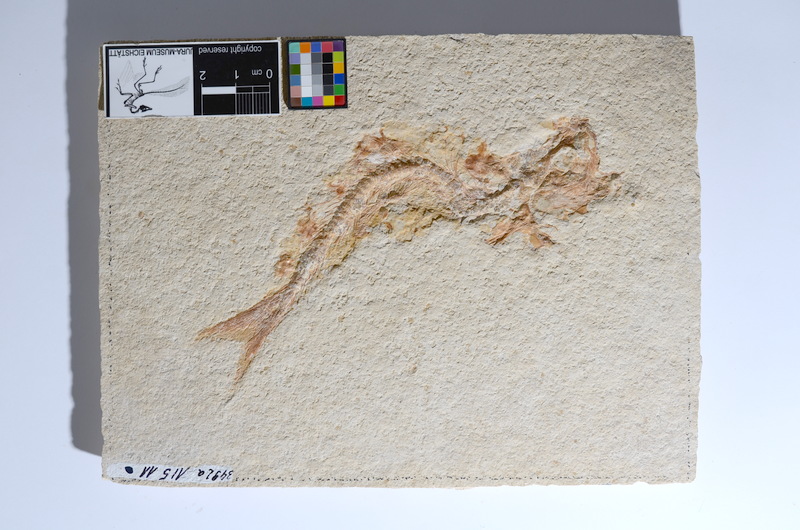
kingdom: Animalia
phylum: Chordata
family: Ascalaboidae
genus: Tharsis
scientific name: Tharsis dubius
